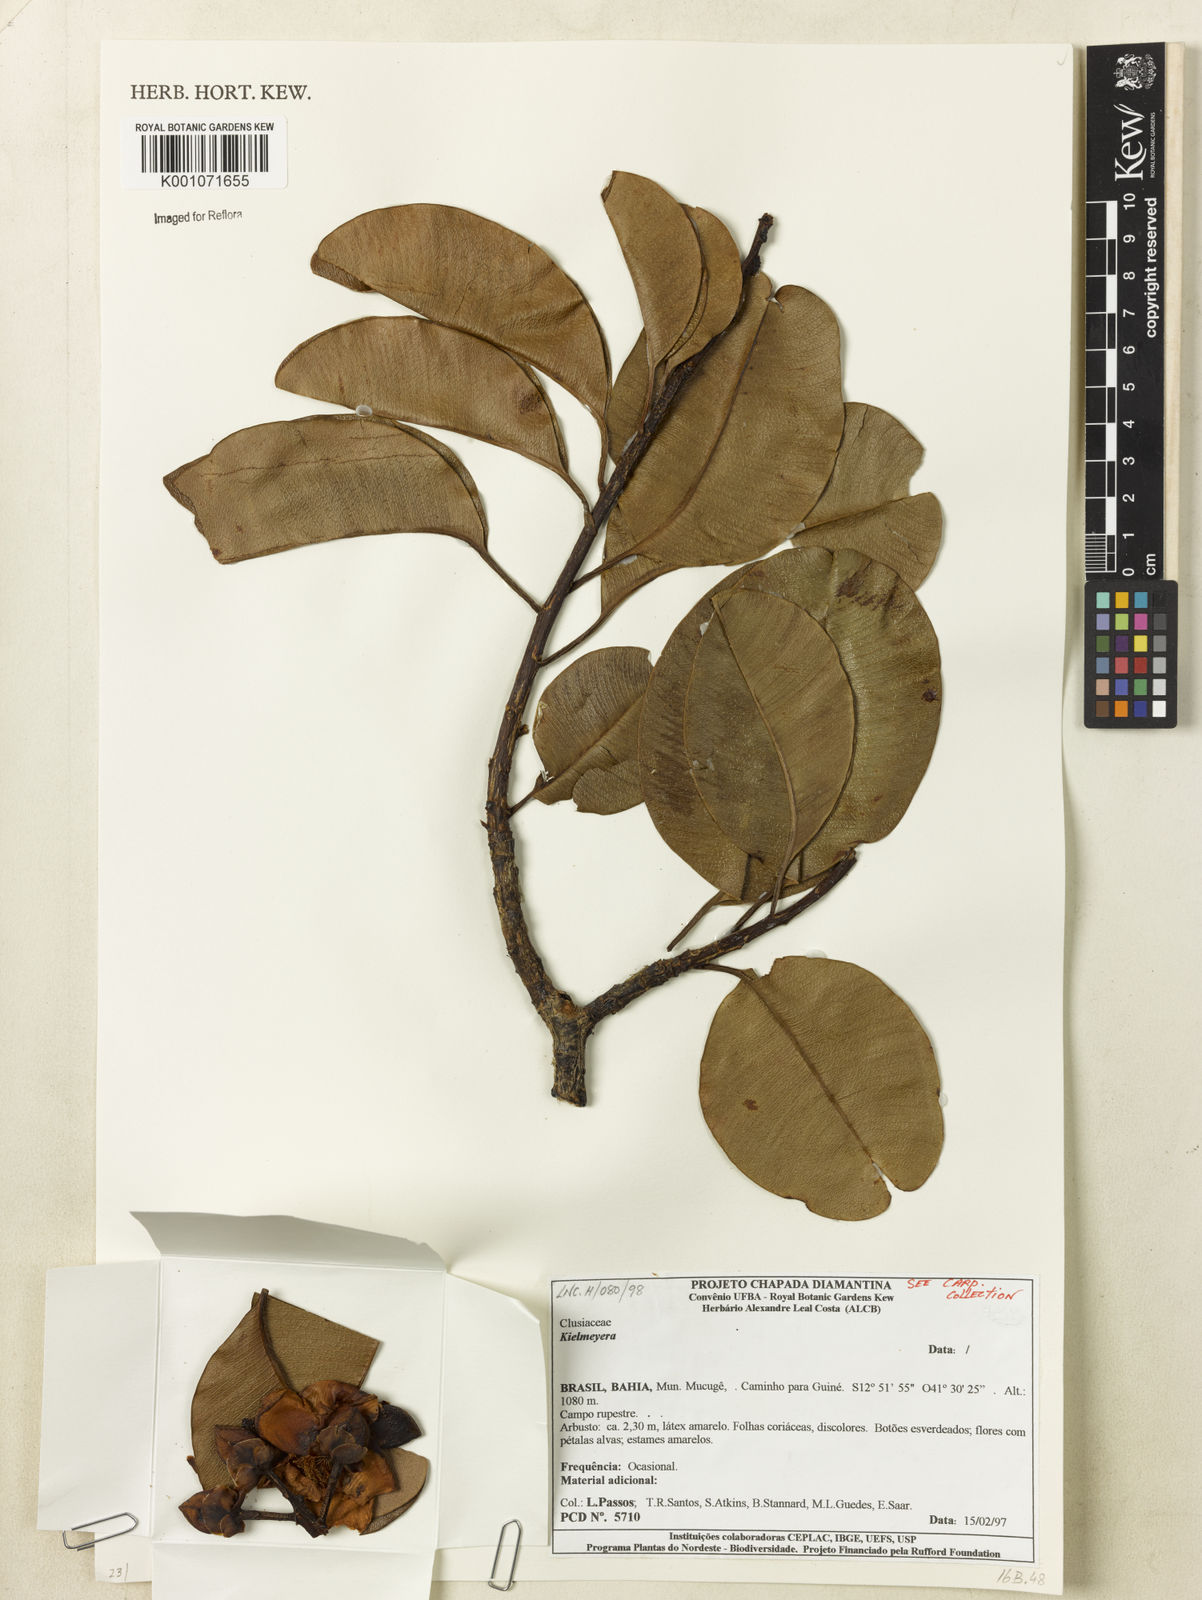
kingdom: Plantae
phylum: Tracheophyta
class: Magnoliopsida
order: Malpighiales
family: Calophyllaceae
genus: Kielmeyera
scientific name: Kielmeyera
